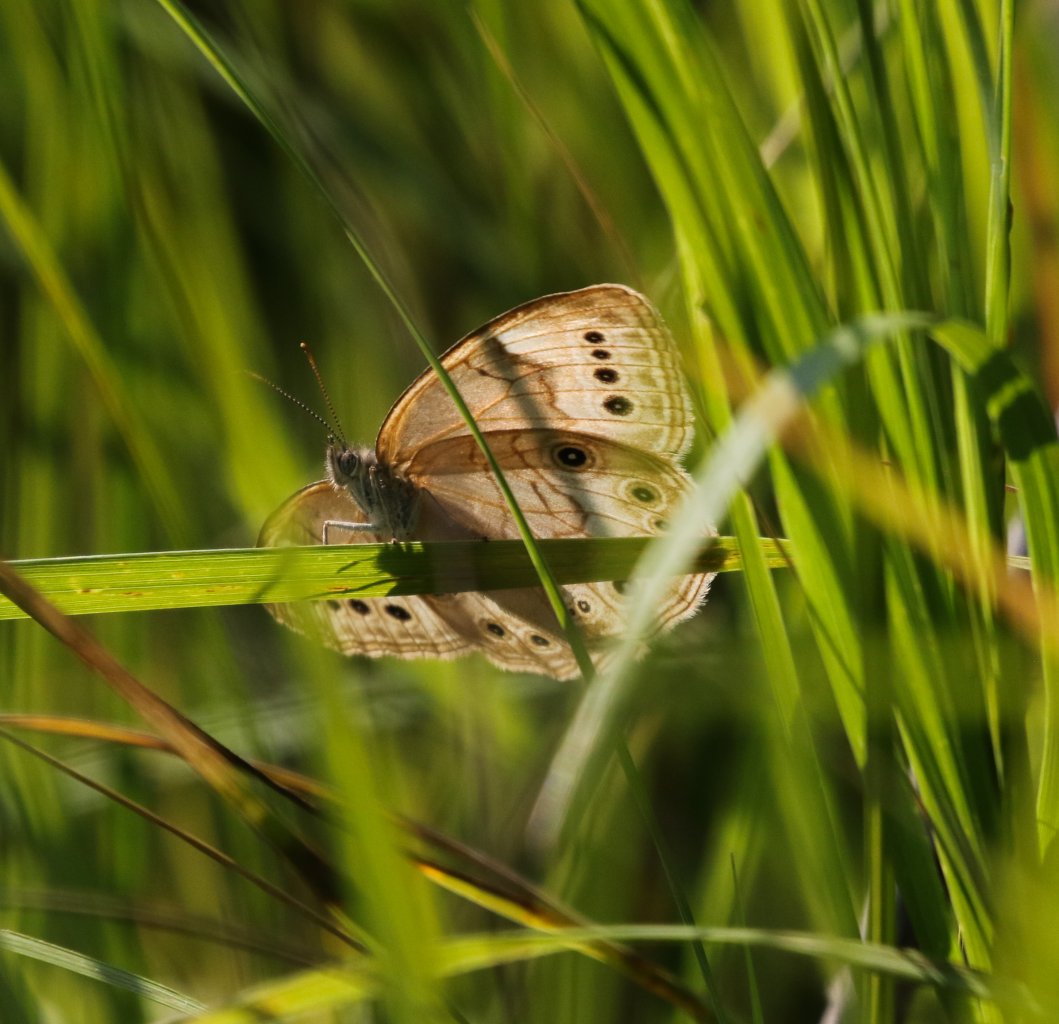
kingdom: Animalia
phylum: Arthropoda
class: Insecta
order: Lepidoptera
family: Nymphalidae
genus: Lethe
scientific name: Lethe eurydice
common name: Eyed Brown
